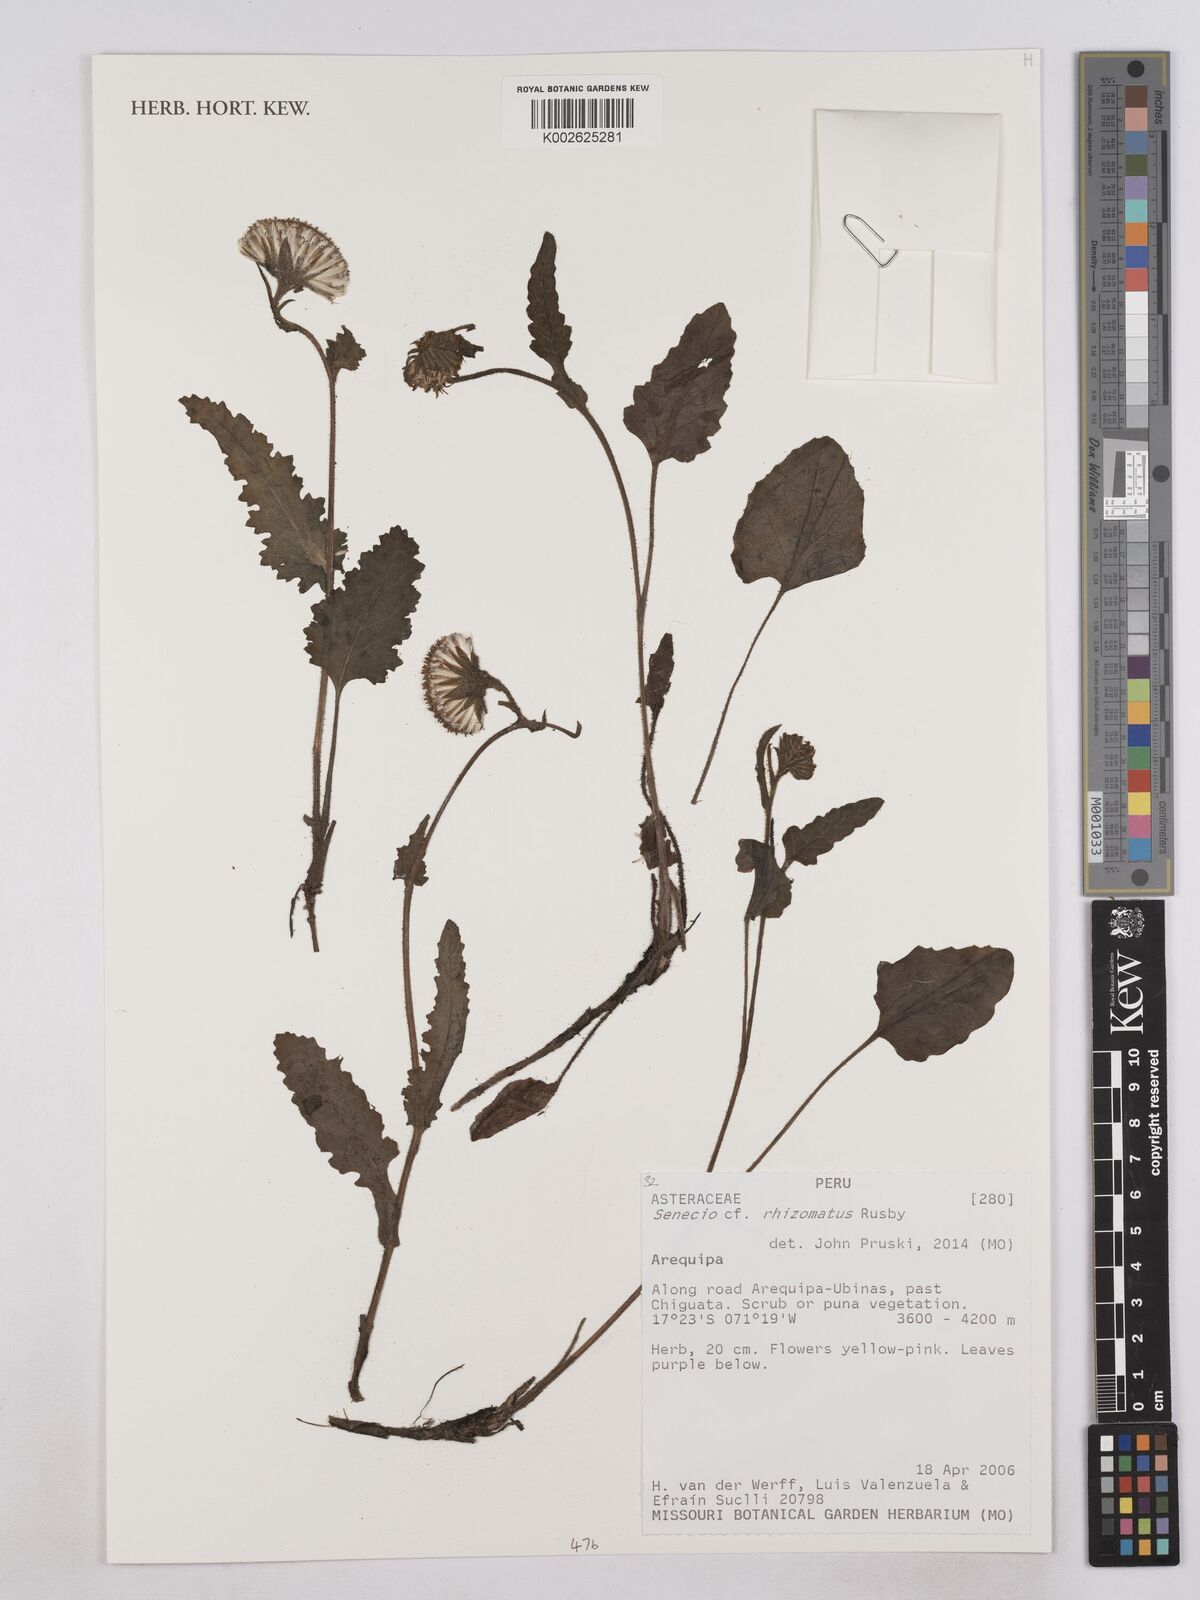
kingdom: Plantae
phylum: Tracheophyta
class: Magnoliopsida
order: Asterales
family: Asteraceae
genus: Senecio
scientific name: Senecio rhizomatus
